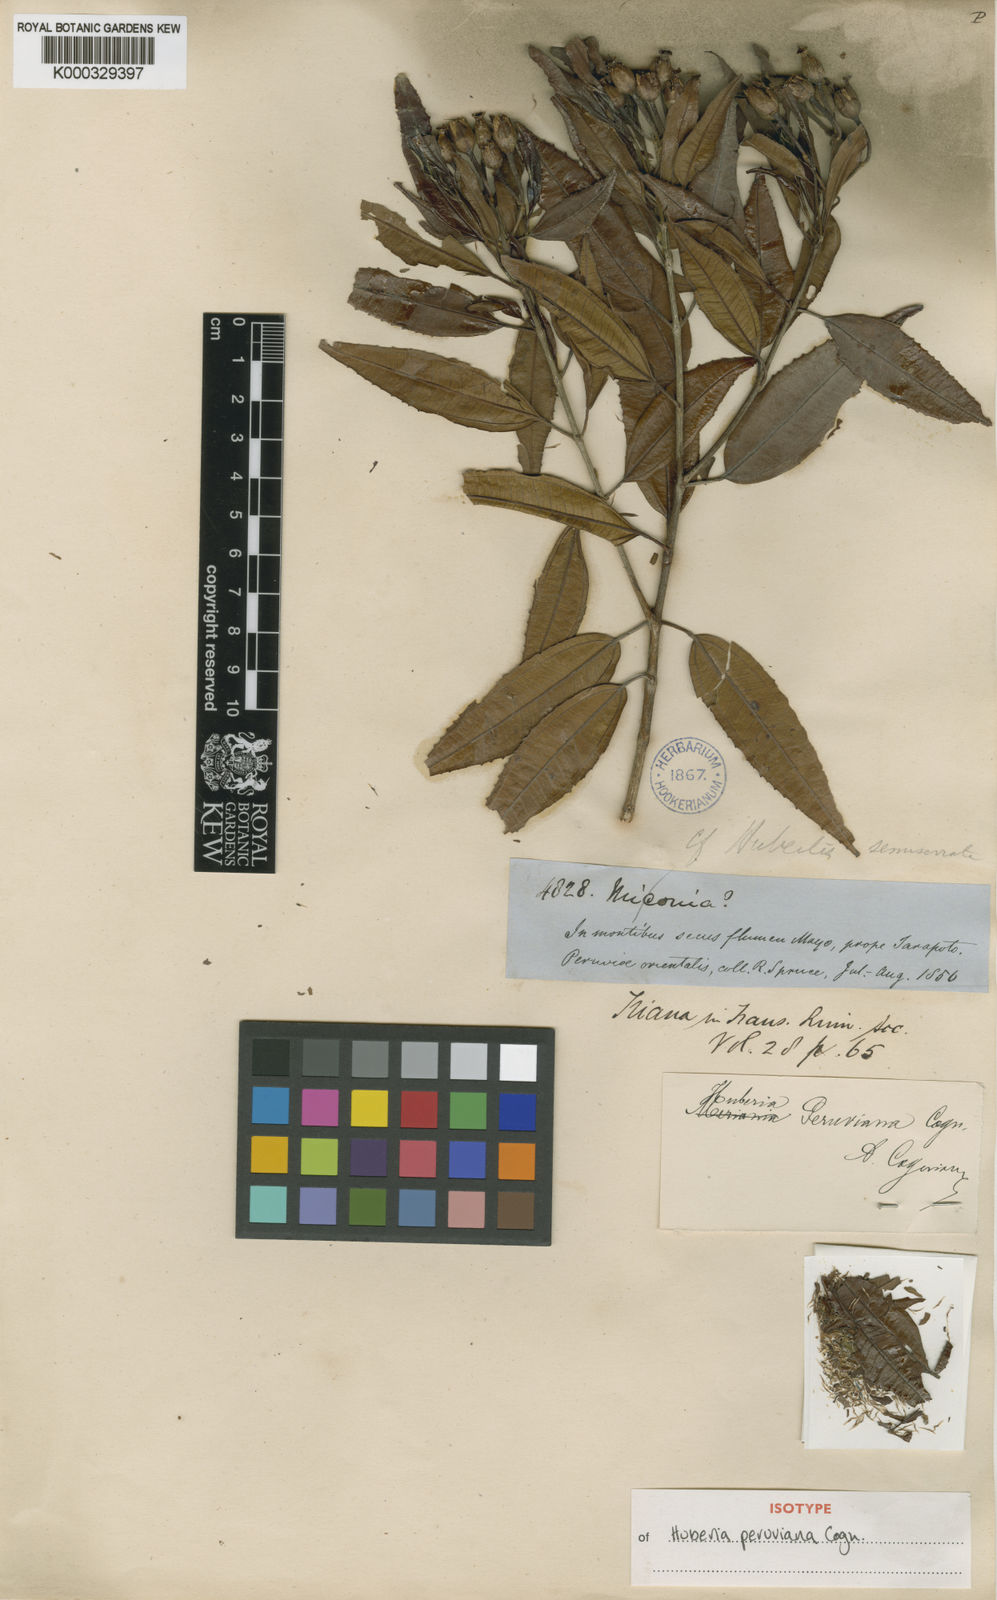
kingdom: Plantae
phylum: Tracheophyta
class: Magnoliopsida
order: Myrtales
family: Melastomataceae
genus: Huberia
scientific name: Huberia peruviana
